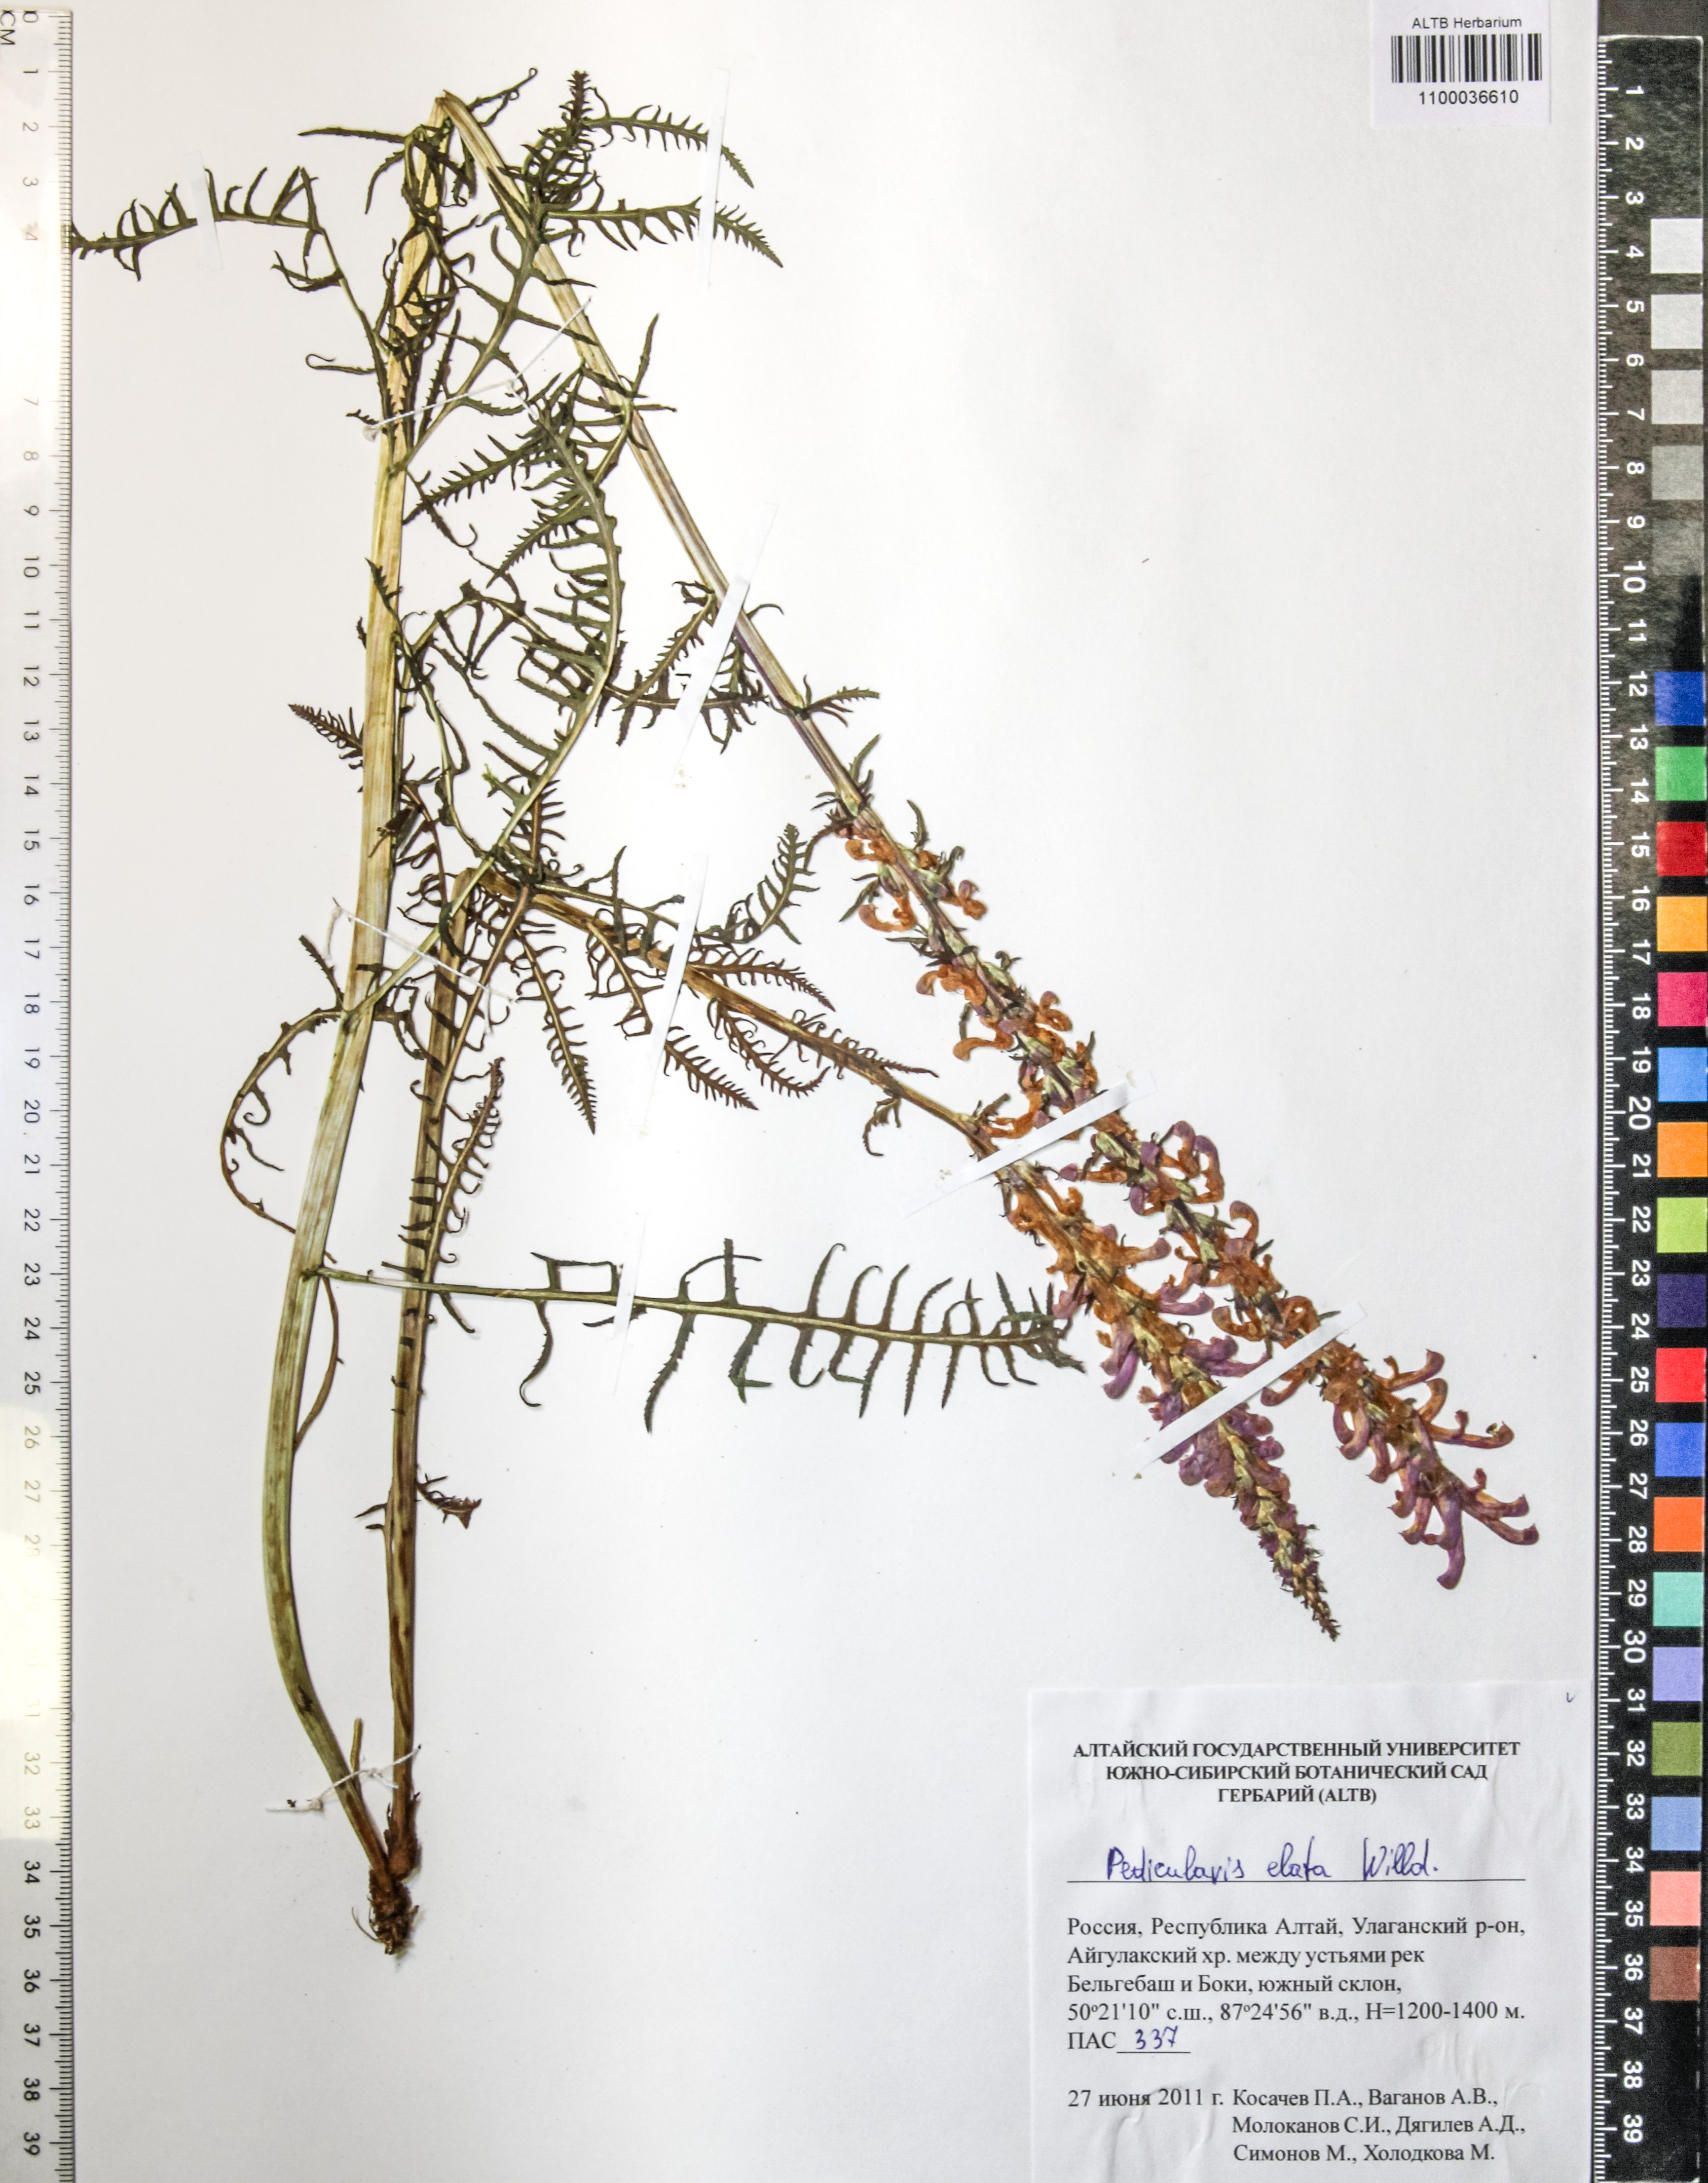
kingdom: Plantae
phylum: Tracheophyta
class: Magnoliopsida
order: Lamiales
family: Orobanchaceae
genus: Pedicularis
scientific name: Pedicularis elata
